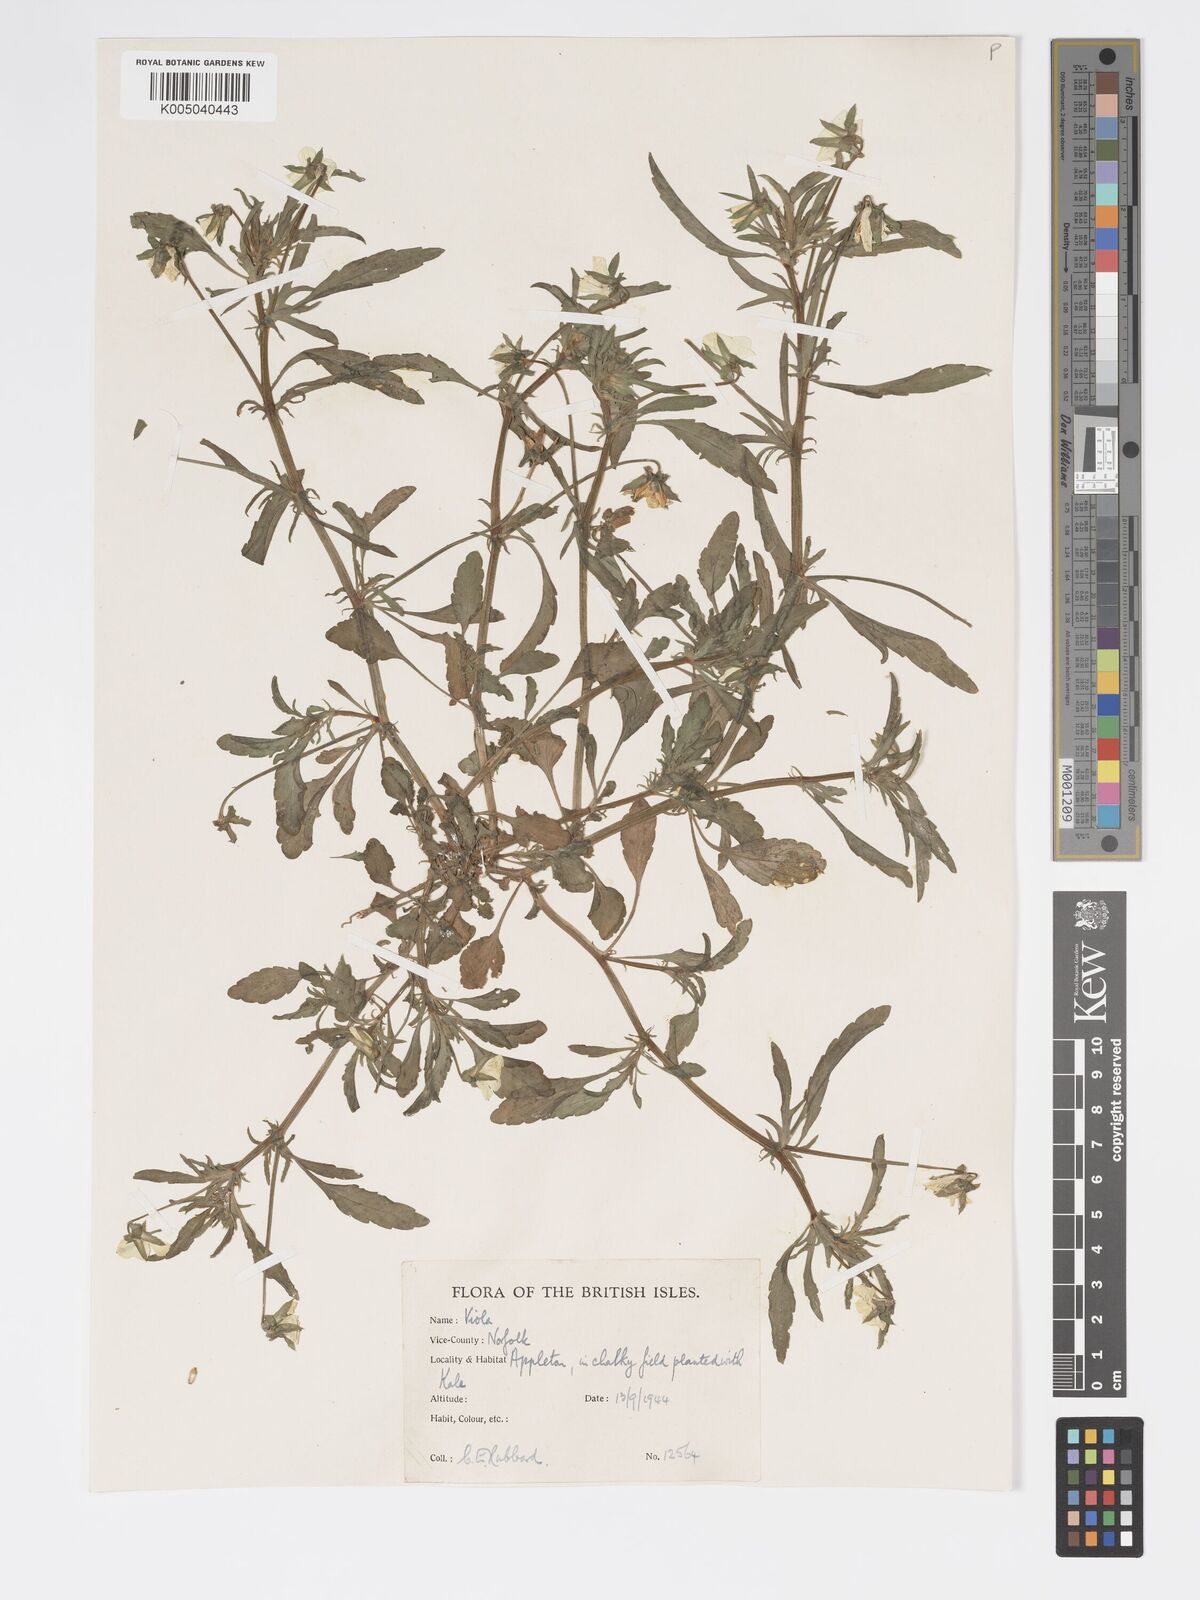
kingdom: Plantae
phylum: Tracheophyta
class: Magnoliopsida
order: Malpighiales
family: Violaceae
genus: Viola
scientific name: Viola arvensis
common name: Field pansy
